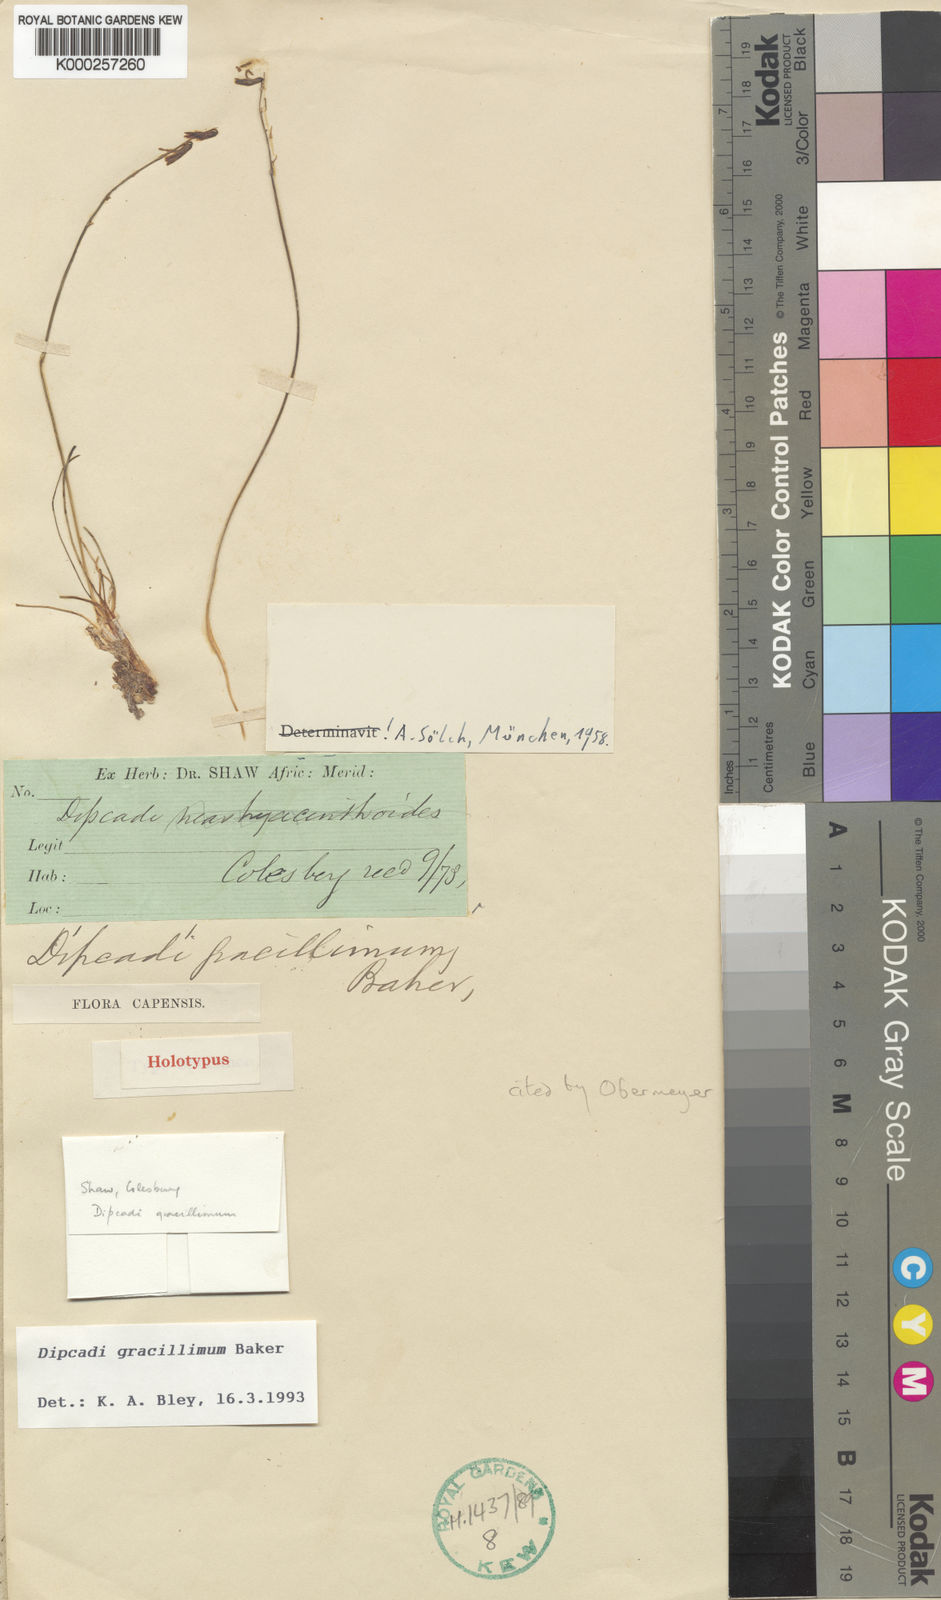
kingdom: Plantae
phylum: Tracheophyta
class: Liliopsida
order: Asparagales
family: Asparagaceae
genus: Dipcadi
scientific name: Dipcadi gracillimum
